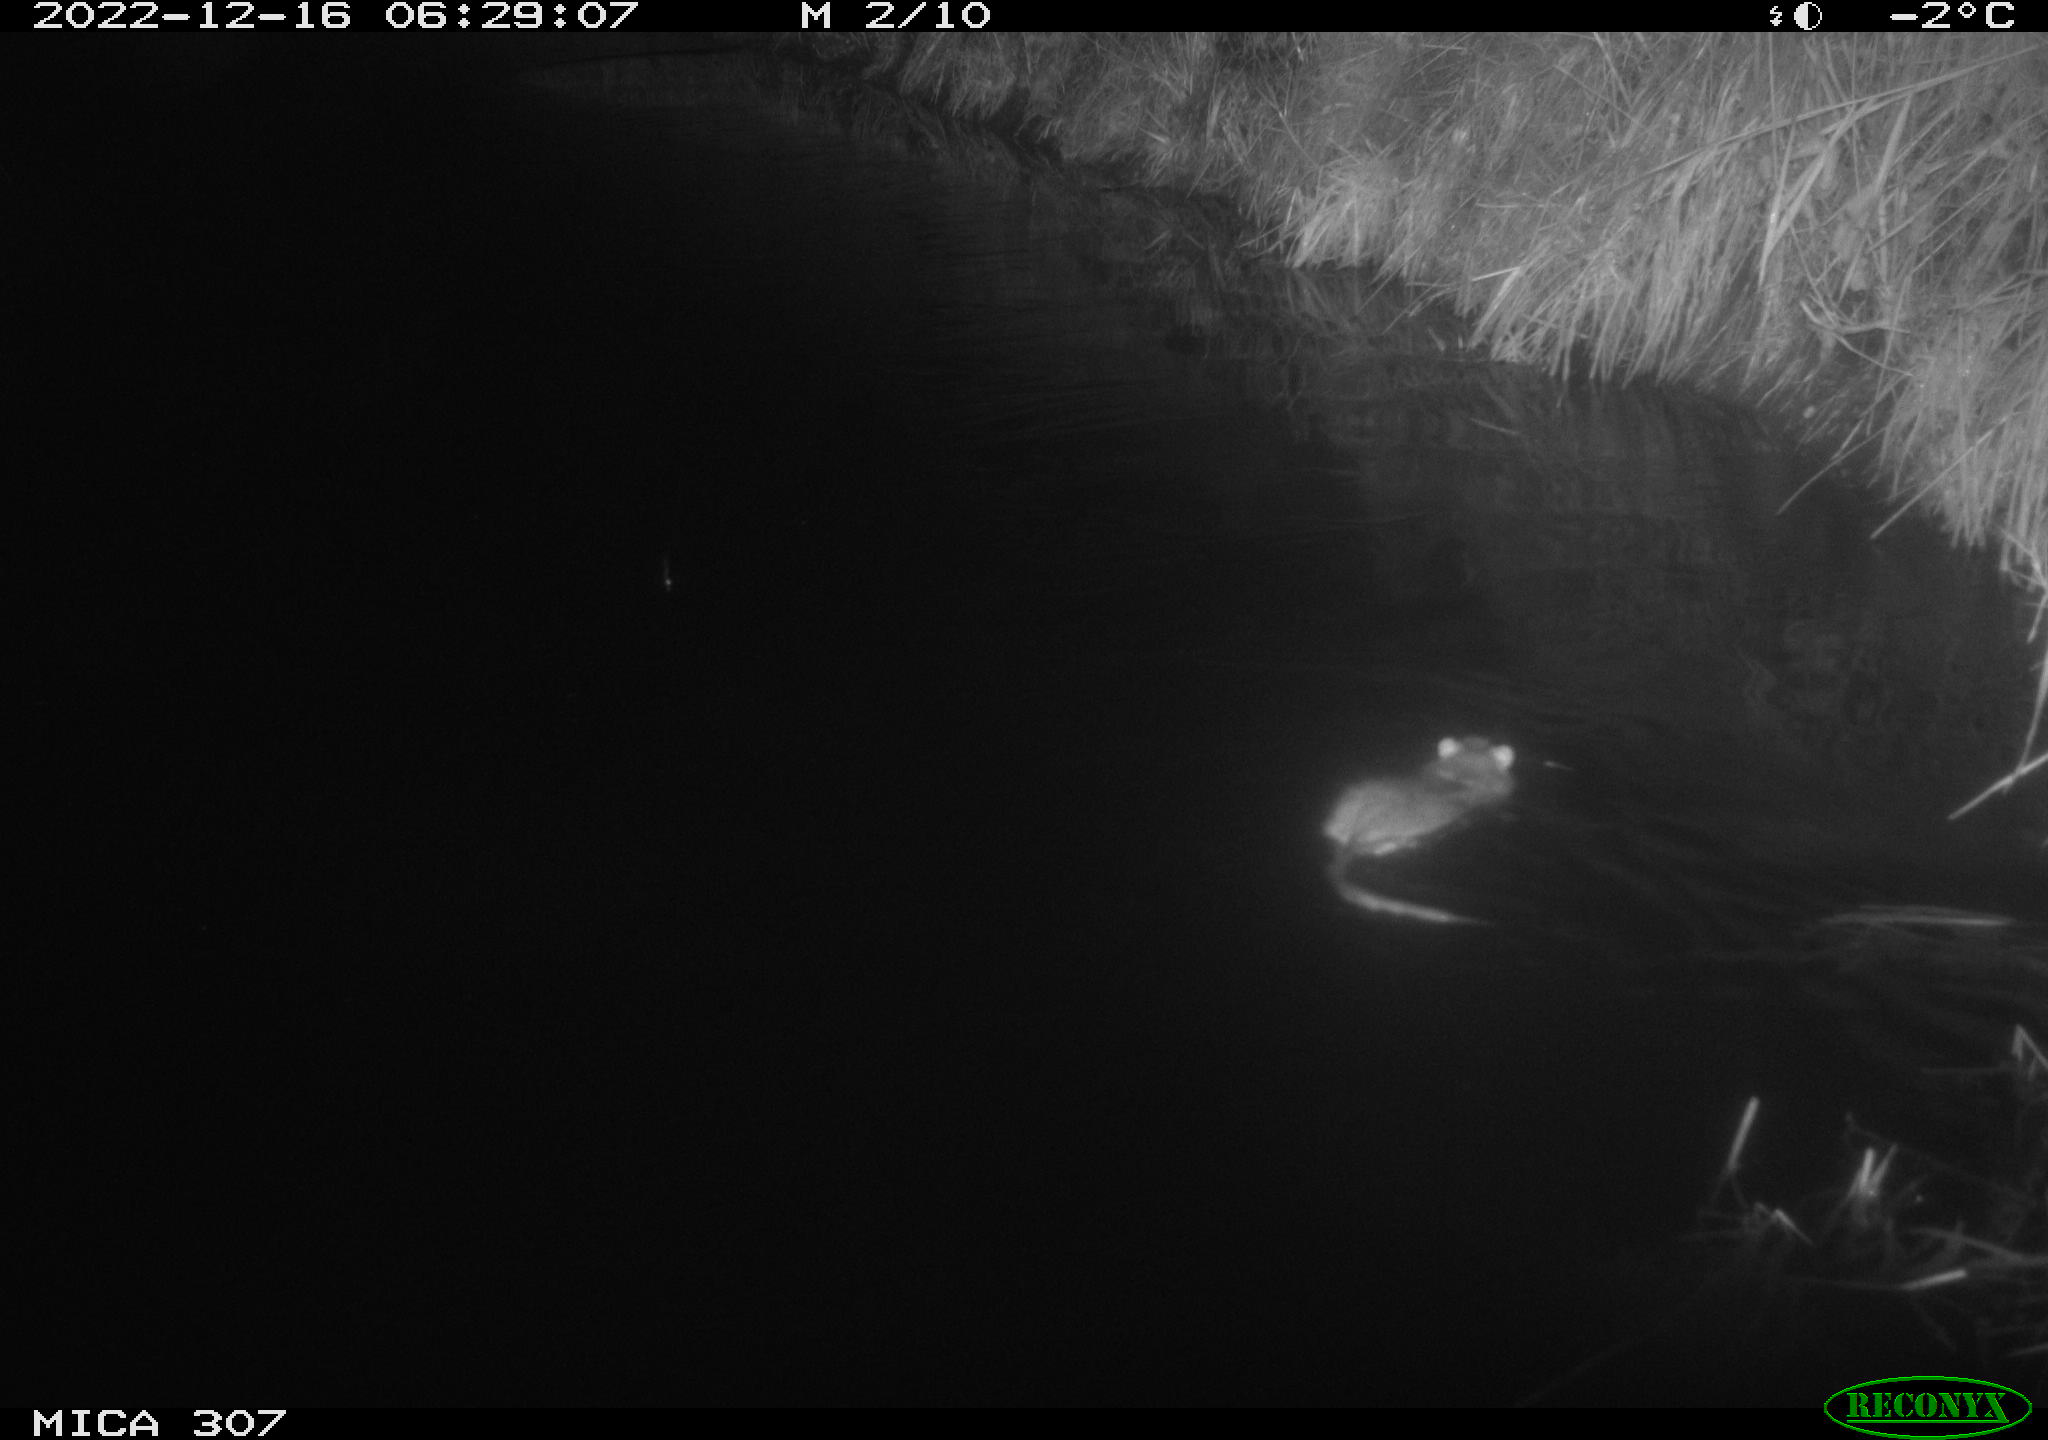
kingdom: Animalia
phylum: Chordata
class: Mammalia
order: Rodentia
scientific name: Rodentia
